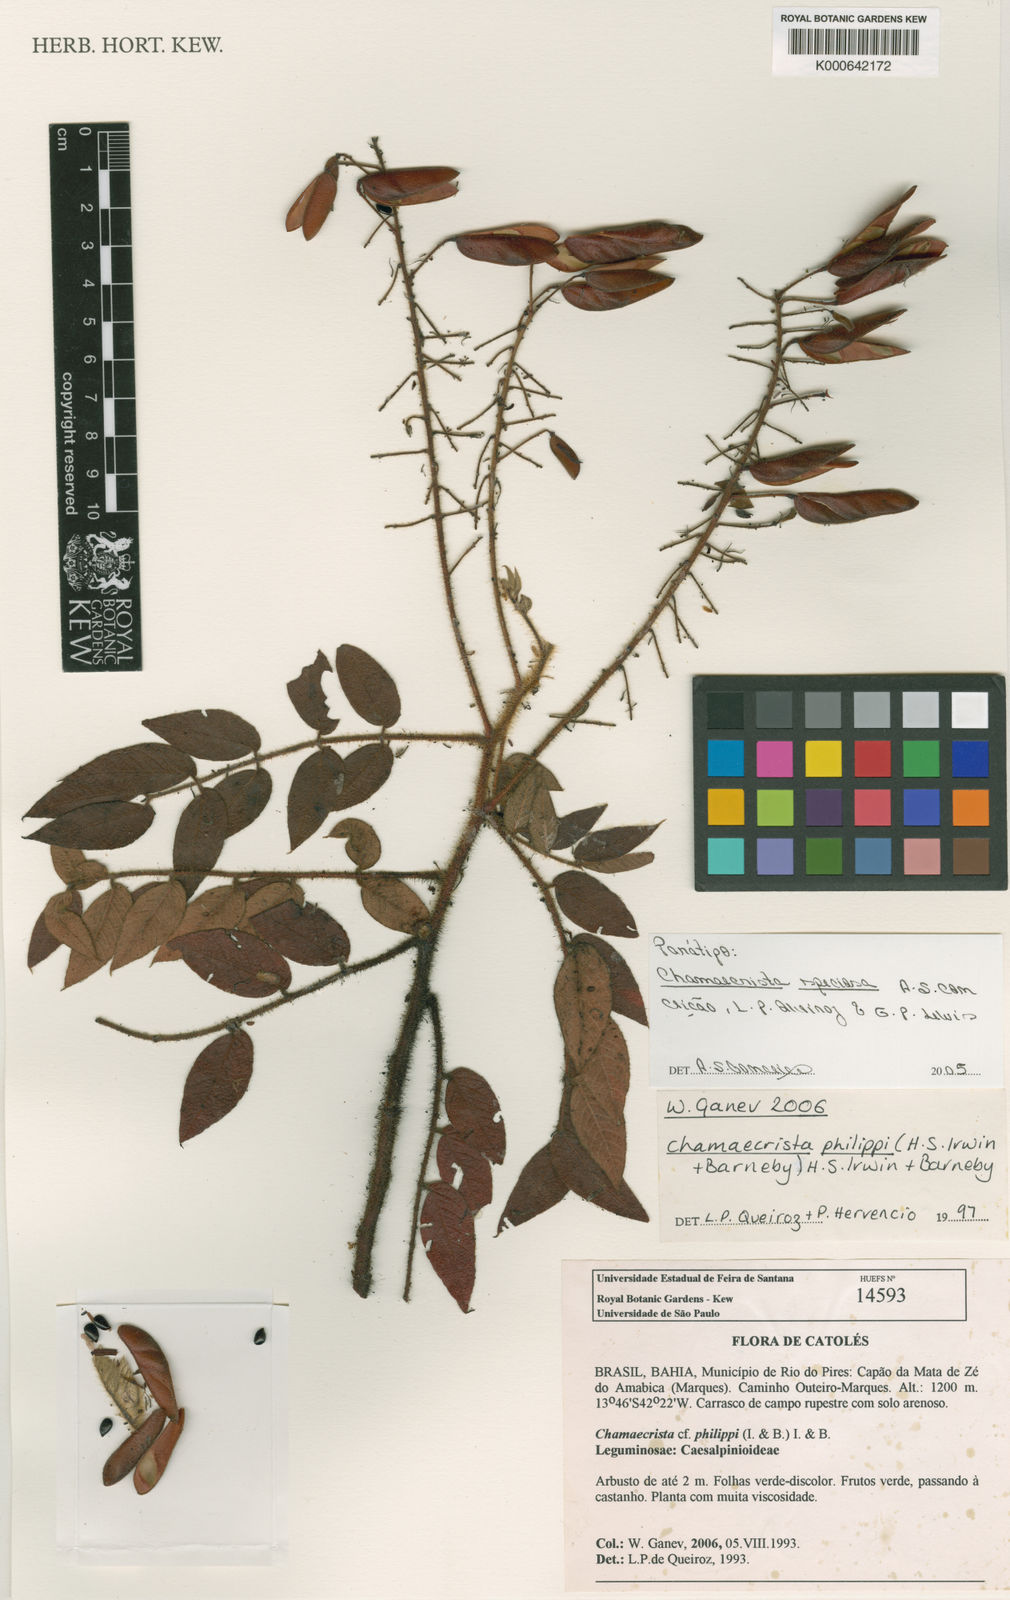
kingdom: Plantae
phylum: Tracheophyta
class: Magnoliopsida
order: Fabales
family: Fabaceae
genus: Chamaecrista
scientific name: Chamaecrista
